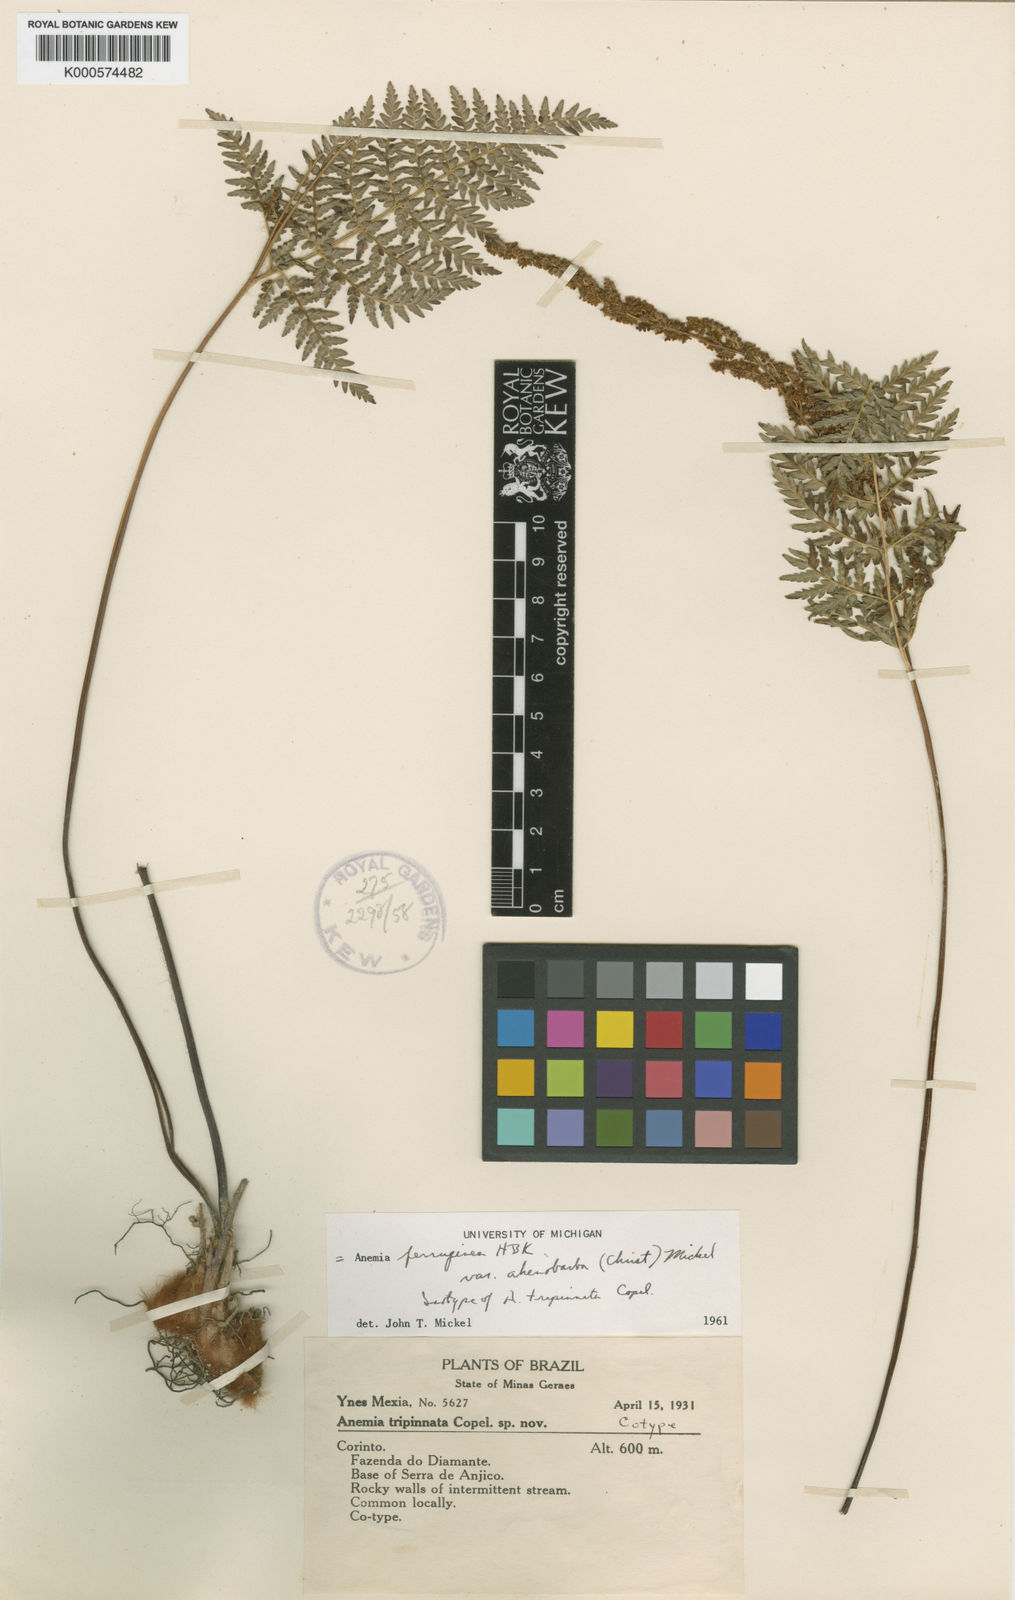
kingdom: Plantae
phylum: Tracheophyta
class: Polypodiopsida
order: Schizaeales
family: Anemiaceae
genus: Anemia
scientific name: Anemia ferruginea
